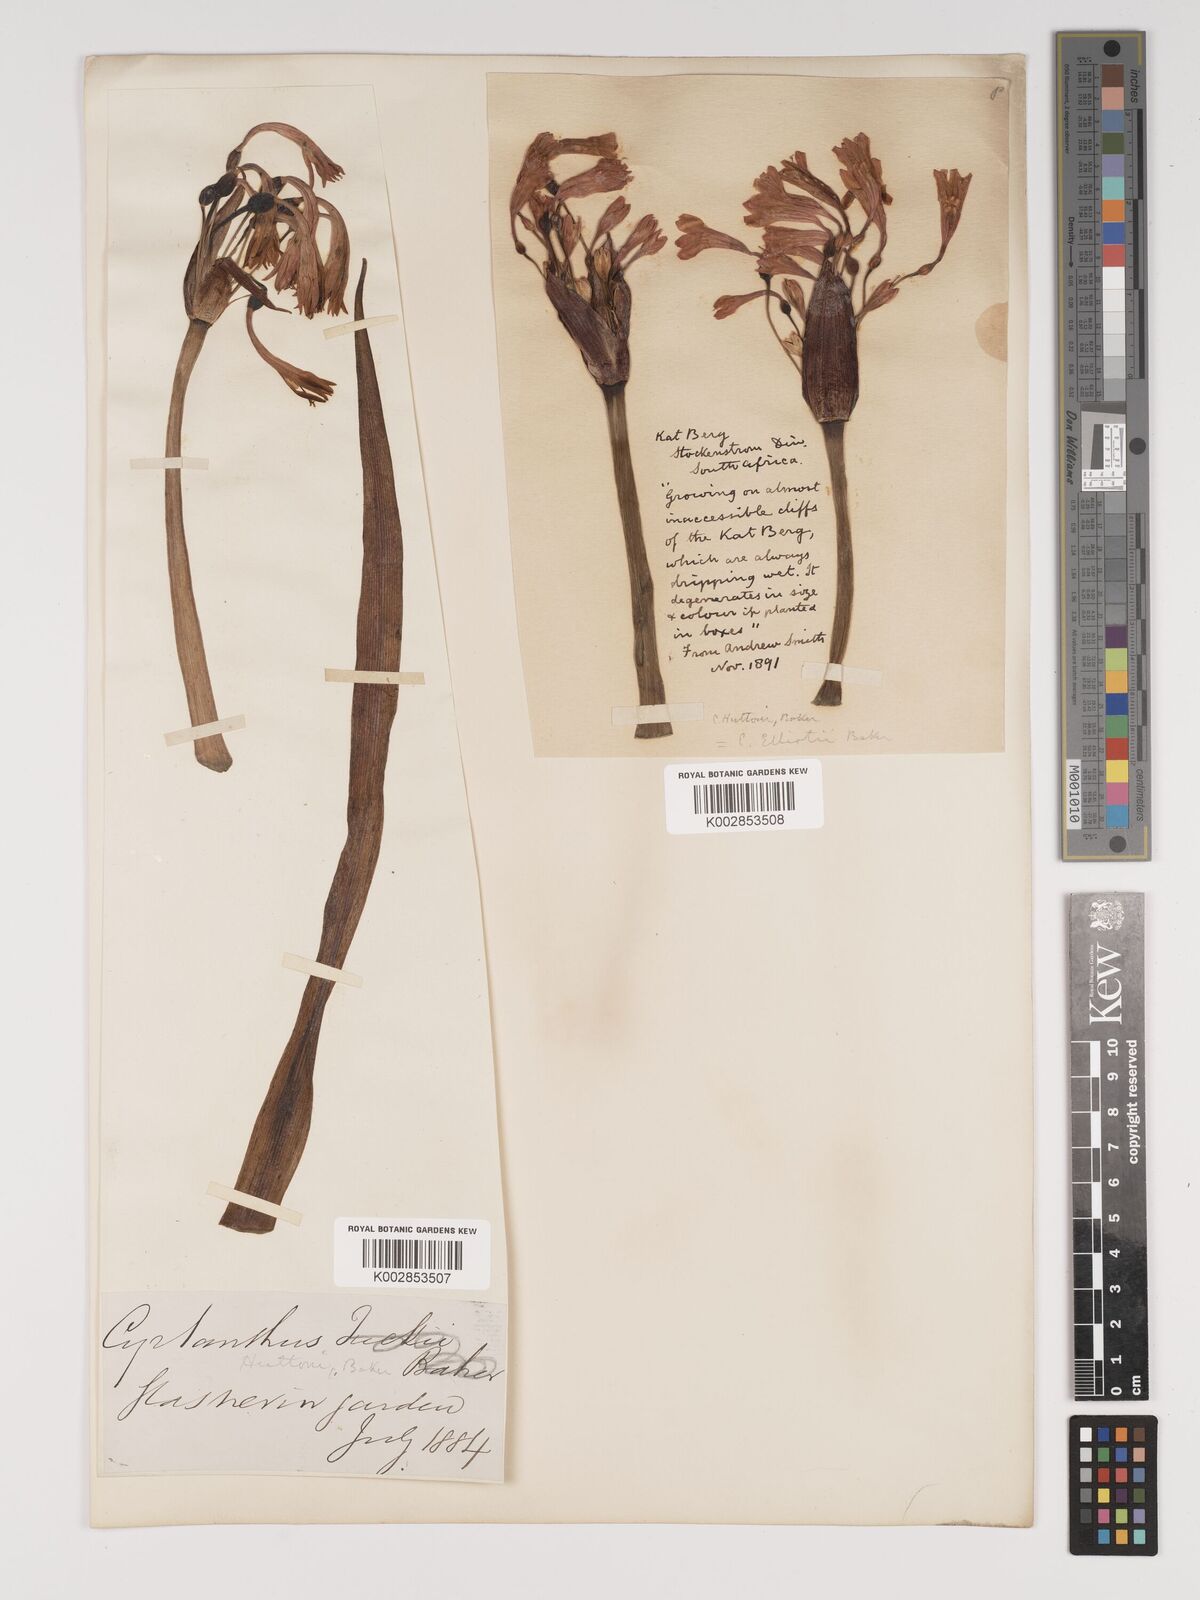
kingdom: Plantae
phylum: Tracheophyta
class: Liliopsida
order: Asparagales
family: Amaryllidaceae
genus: Cyrtanthus
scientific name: Cyrtanthus huttonii
